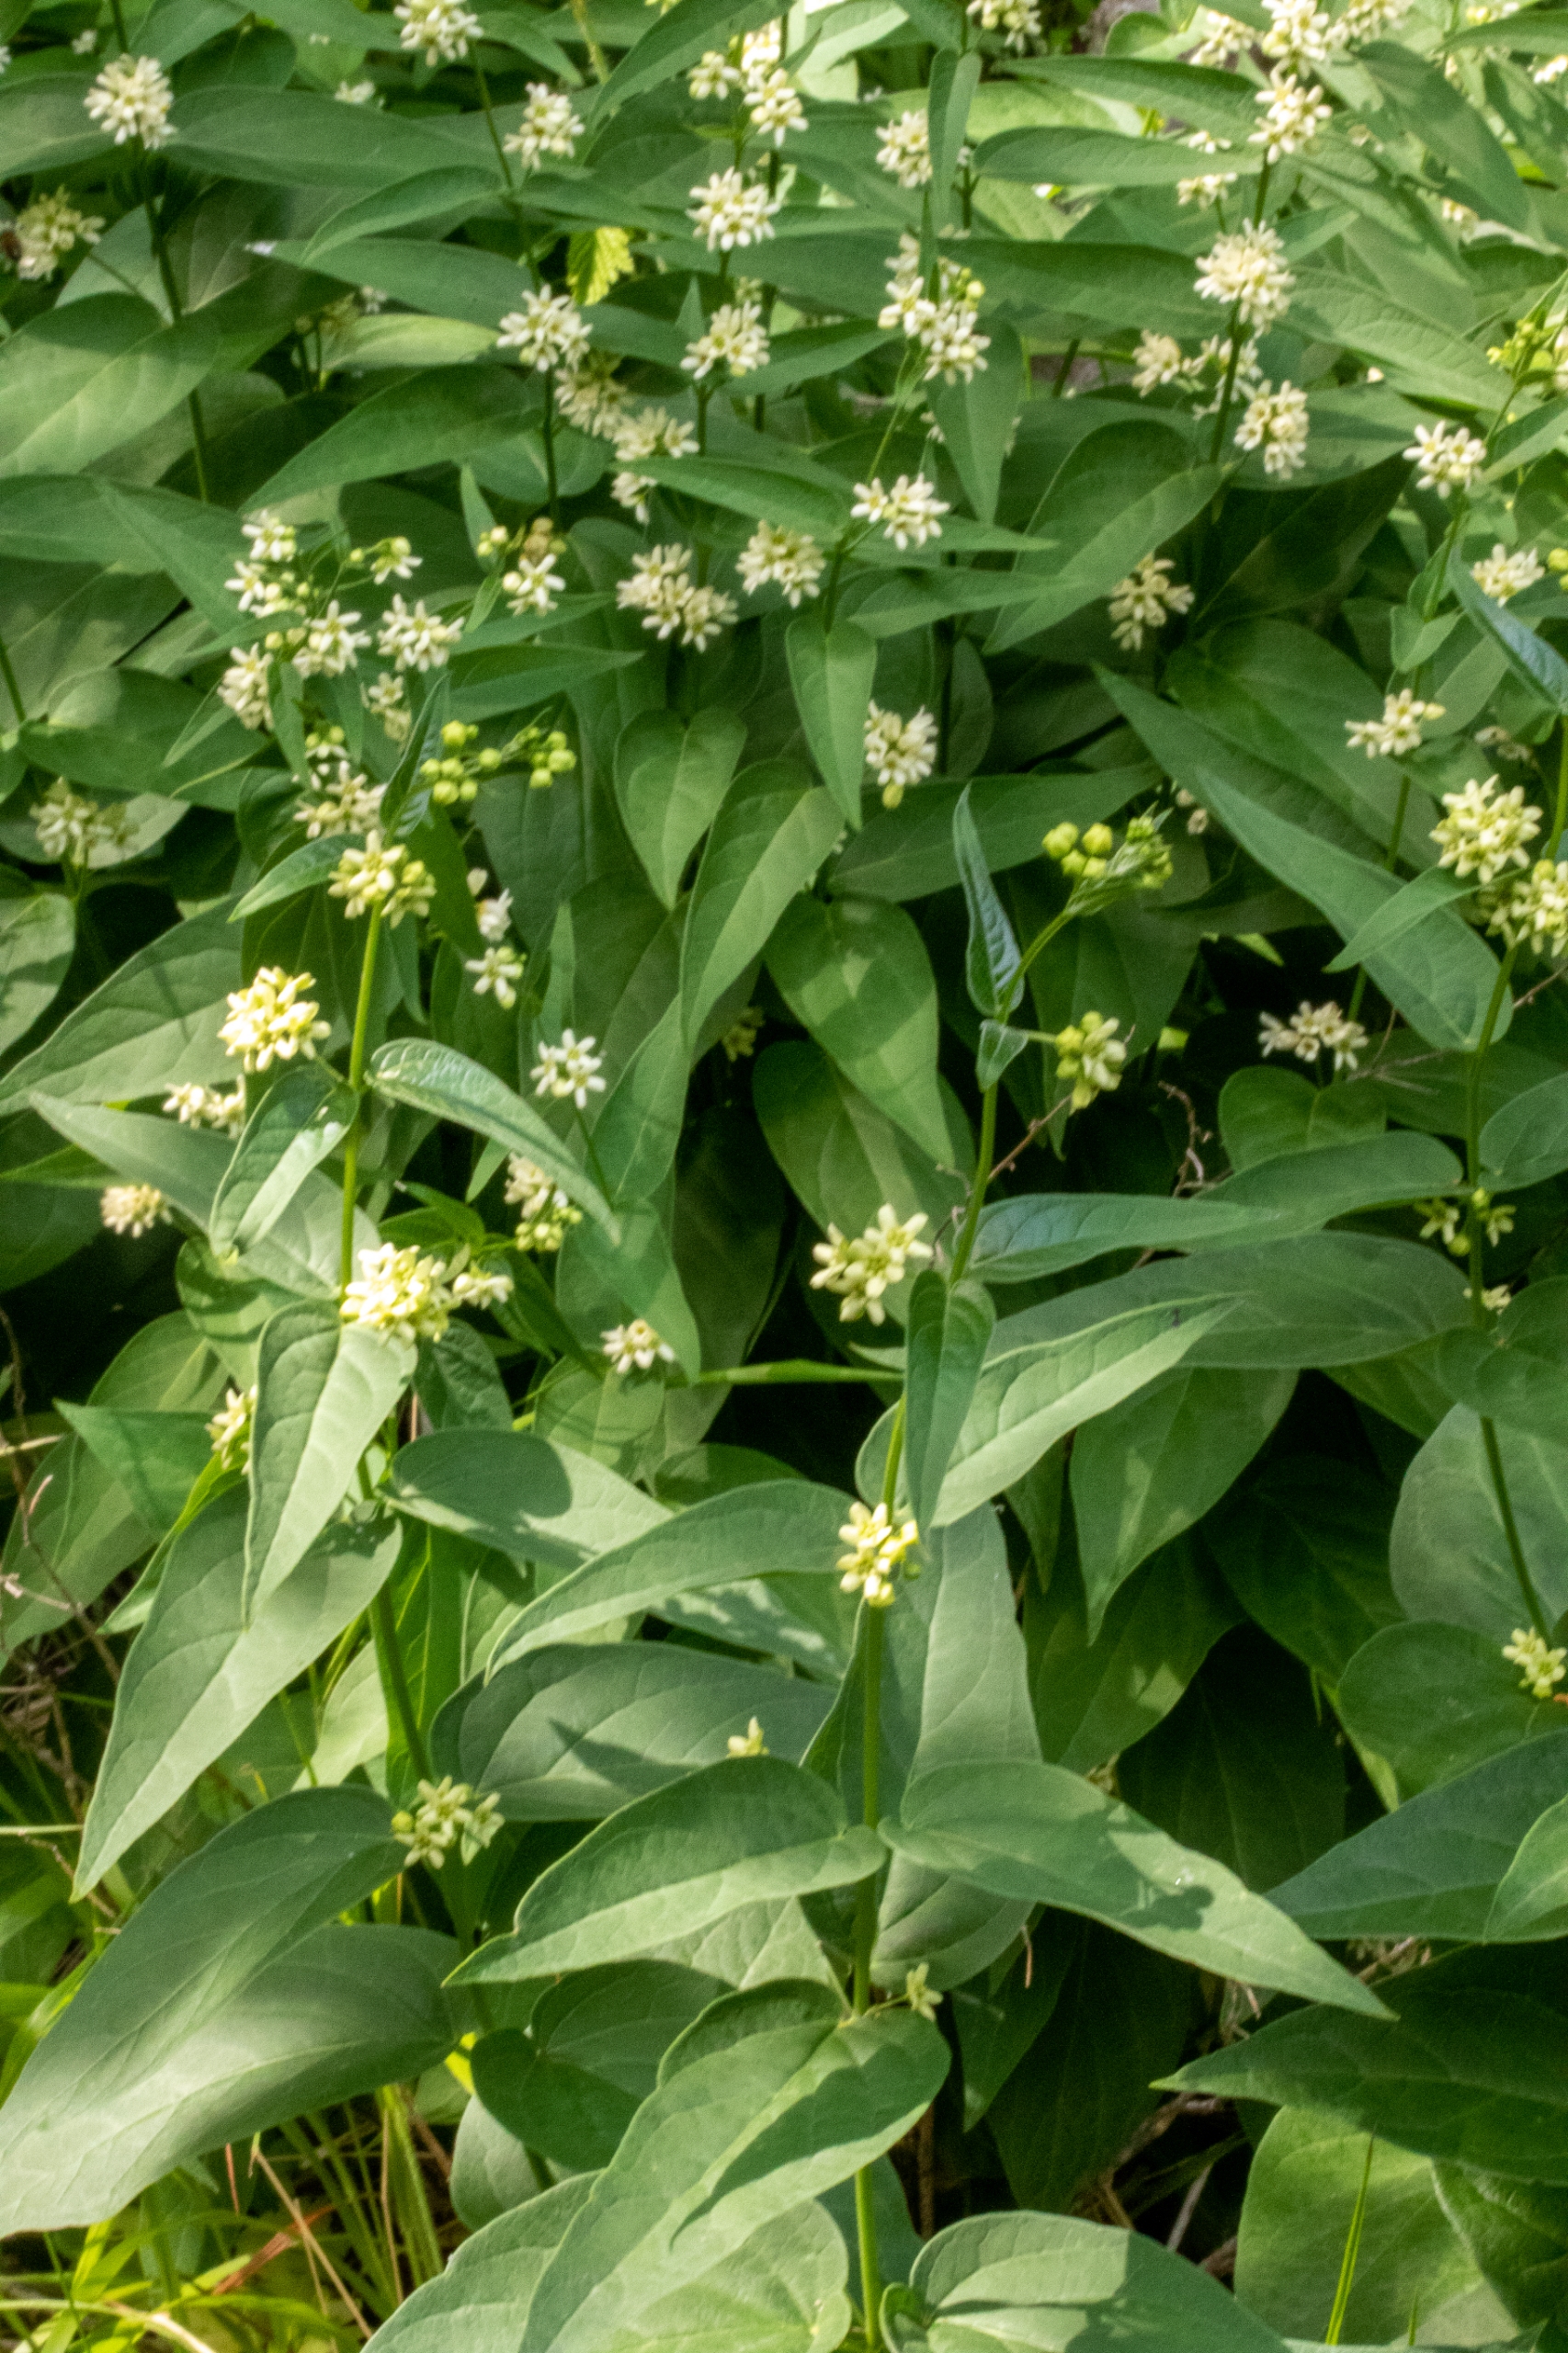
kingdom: Plantae
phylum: Tracheophyta
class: Magnoliopsida
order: Gentianales
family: Apocynaceae
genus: Vincetoxicum
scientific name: Vincetoxicum hirundinaria
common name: Svalerod
